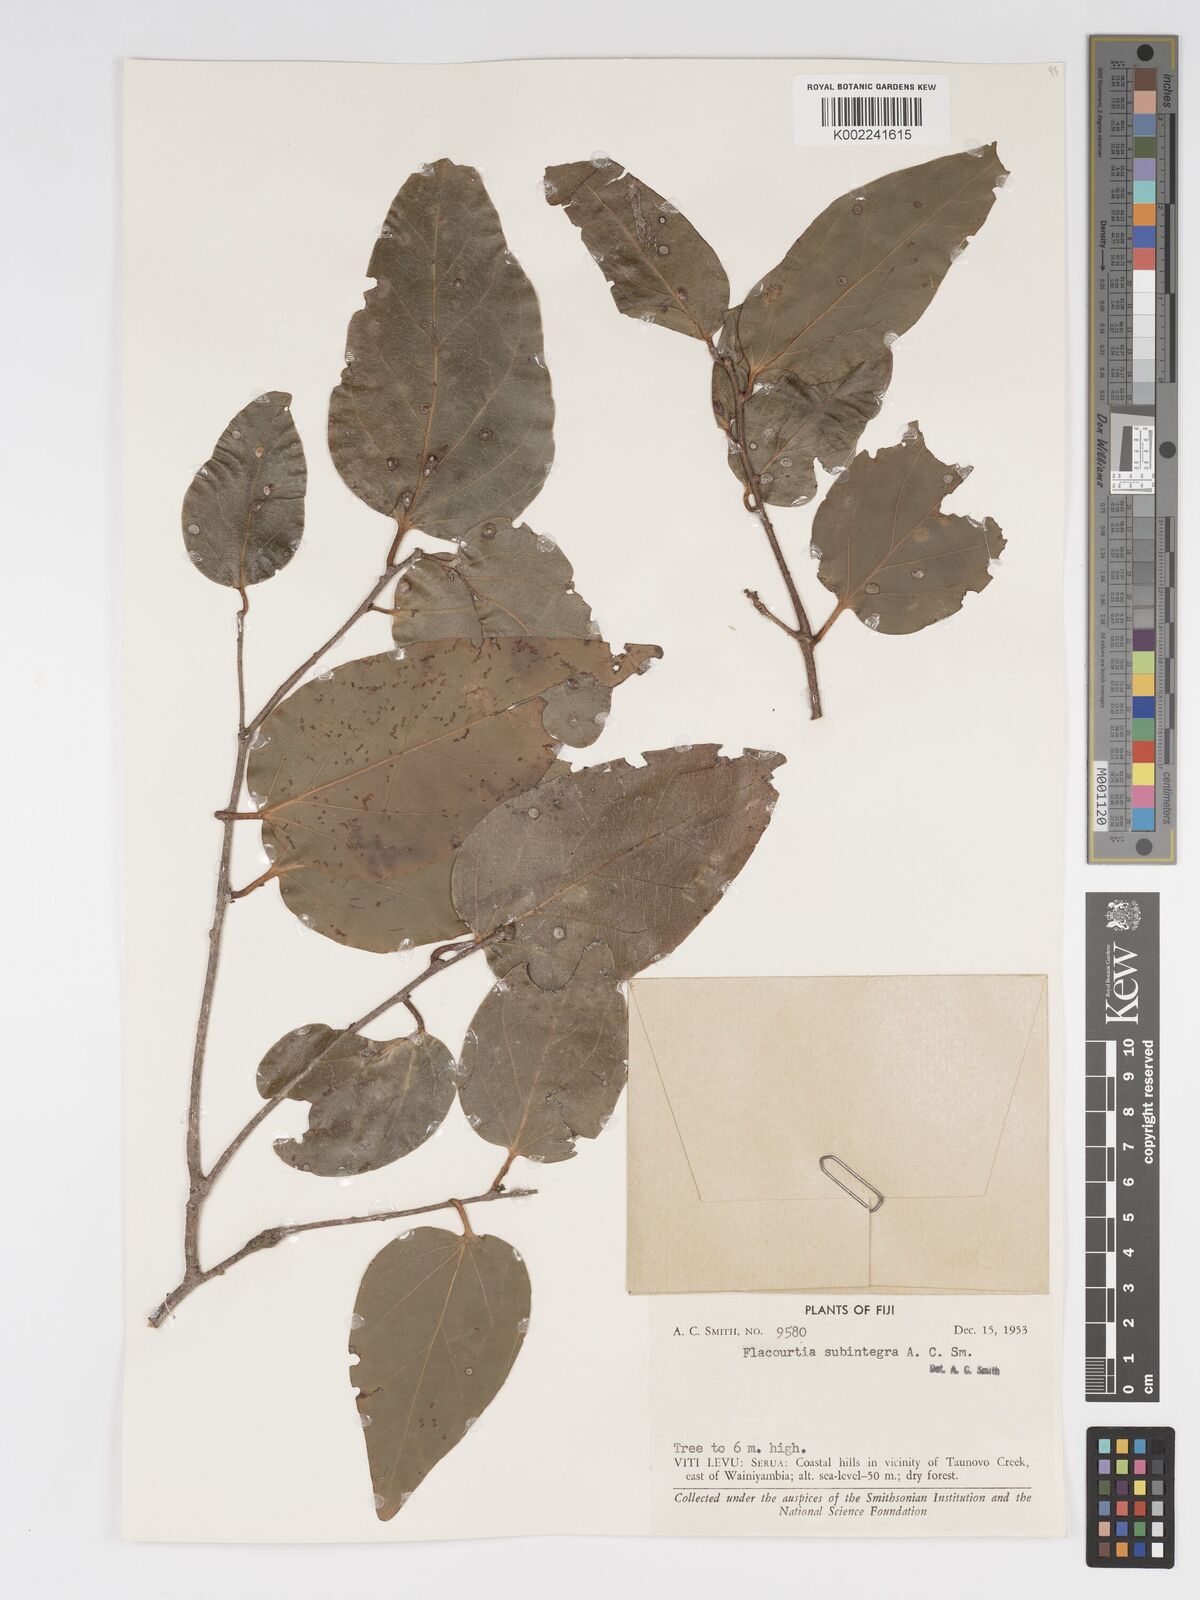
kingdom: Plantae
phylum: Tracheophyta
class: Magnoliopsida
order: Malpighiales
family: Salicaceae
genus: Flacourtia
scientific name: Flacourtia subintegra
